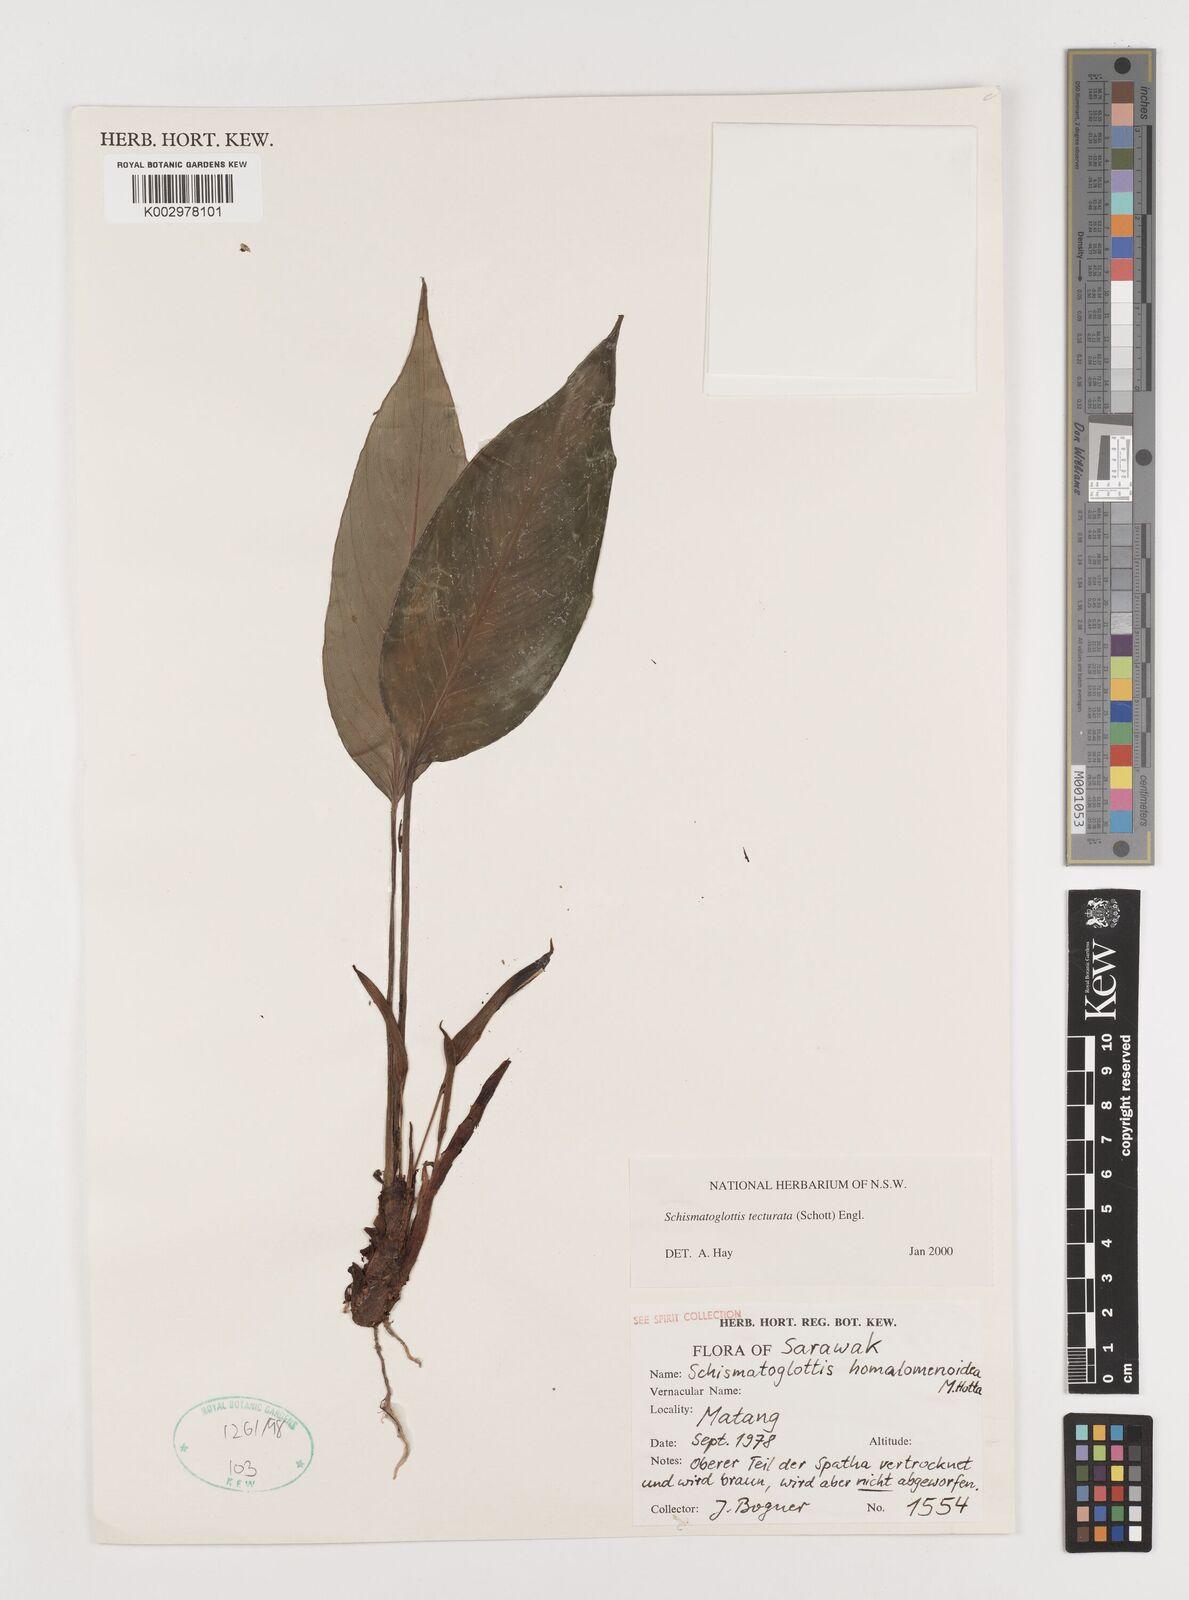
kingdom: Plantae
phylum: Tracheophyta
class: Liliopsida
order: Zingiberales
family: Costaceae
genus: Colobogynium
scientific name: Colobogynium variegatum
